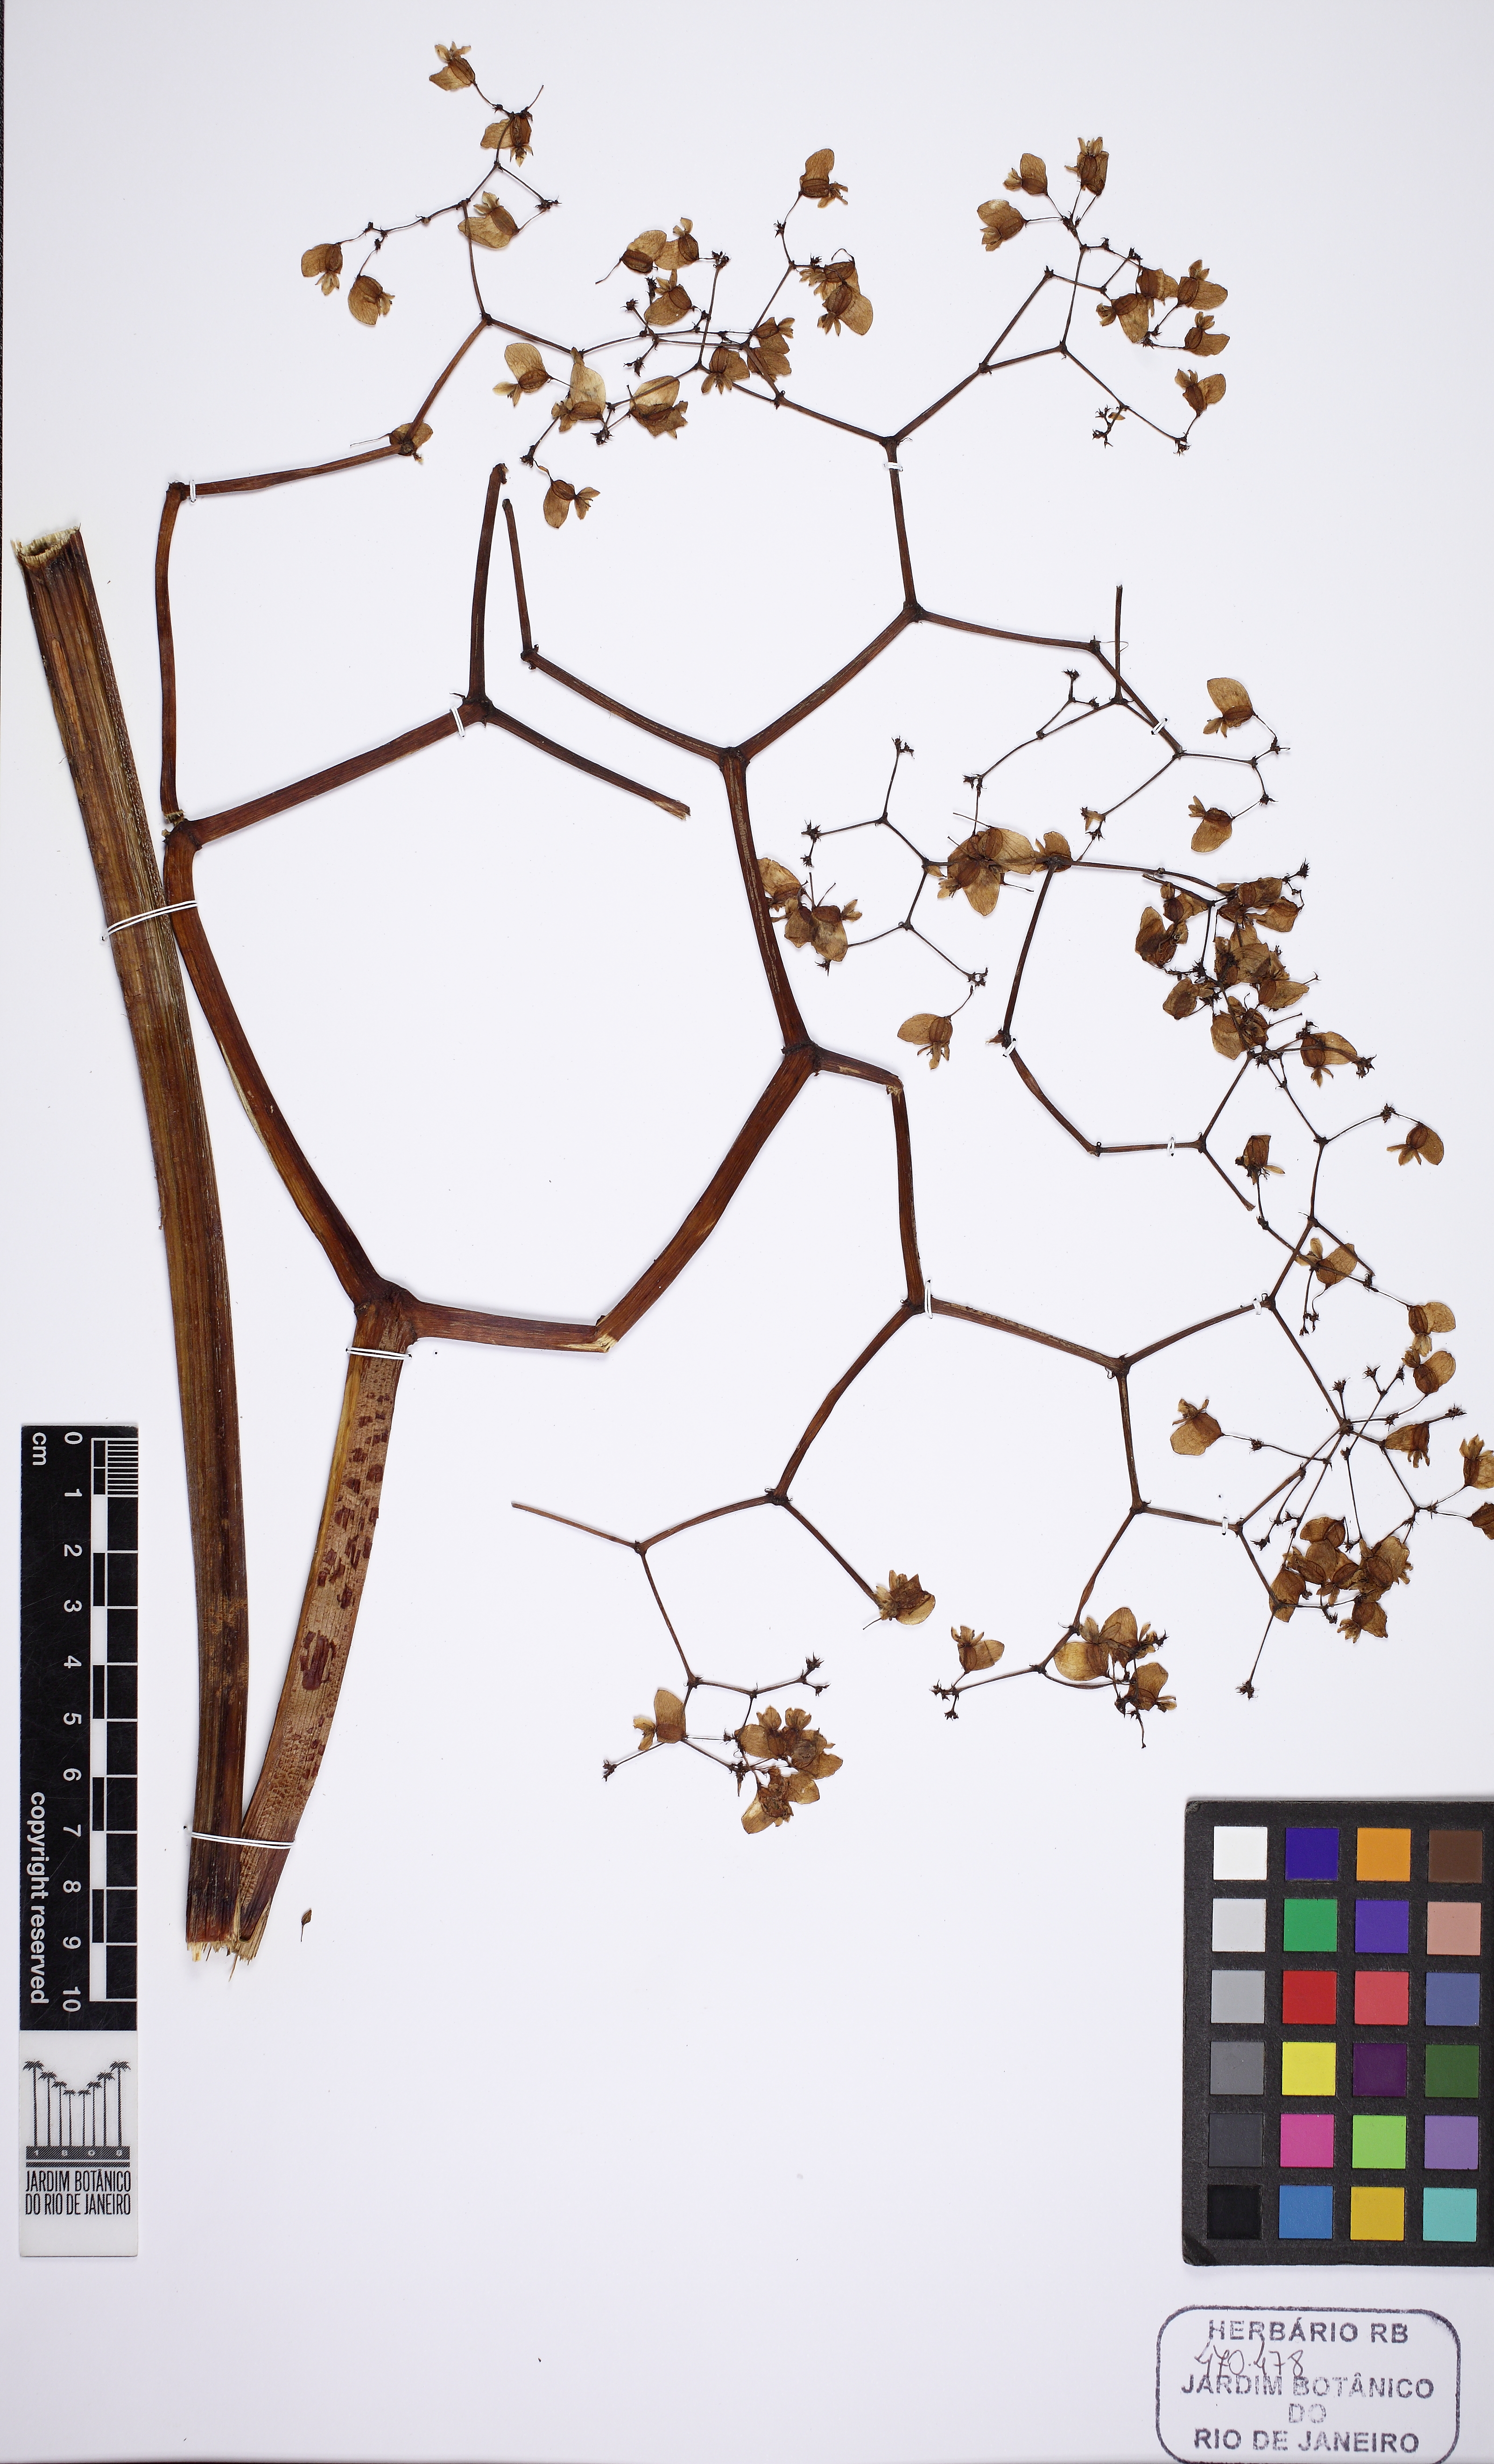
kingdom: Plantae
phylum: Tracheophyta
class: Magnoliopsida
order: Cucurbitales
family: Begoniaceae
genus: Begonia
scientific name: Begonia reniformis
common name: Grapeleaf begonia
